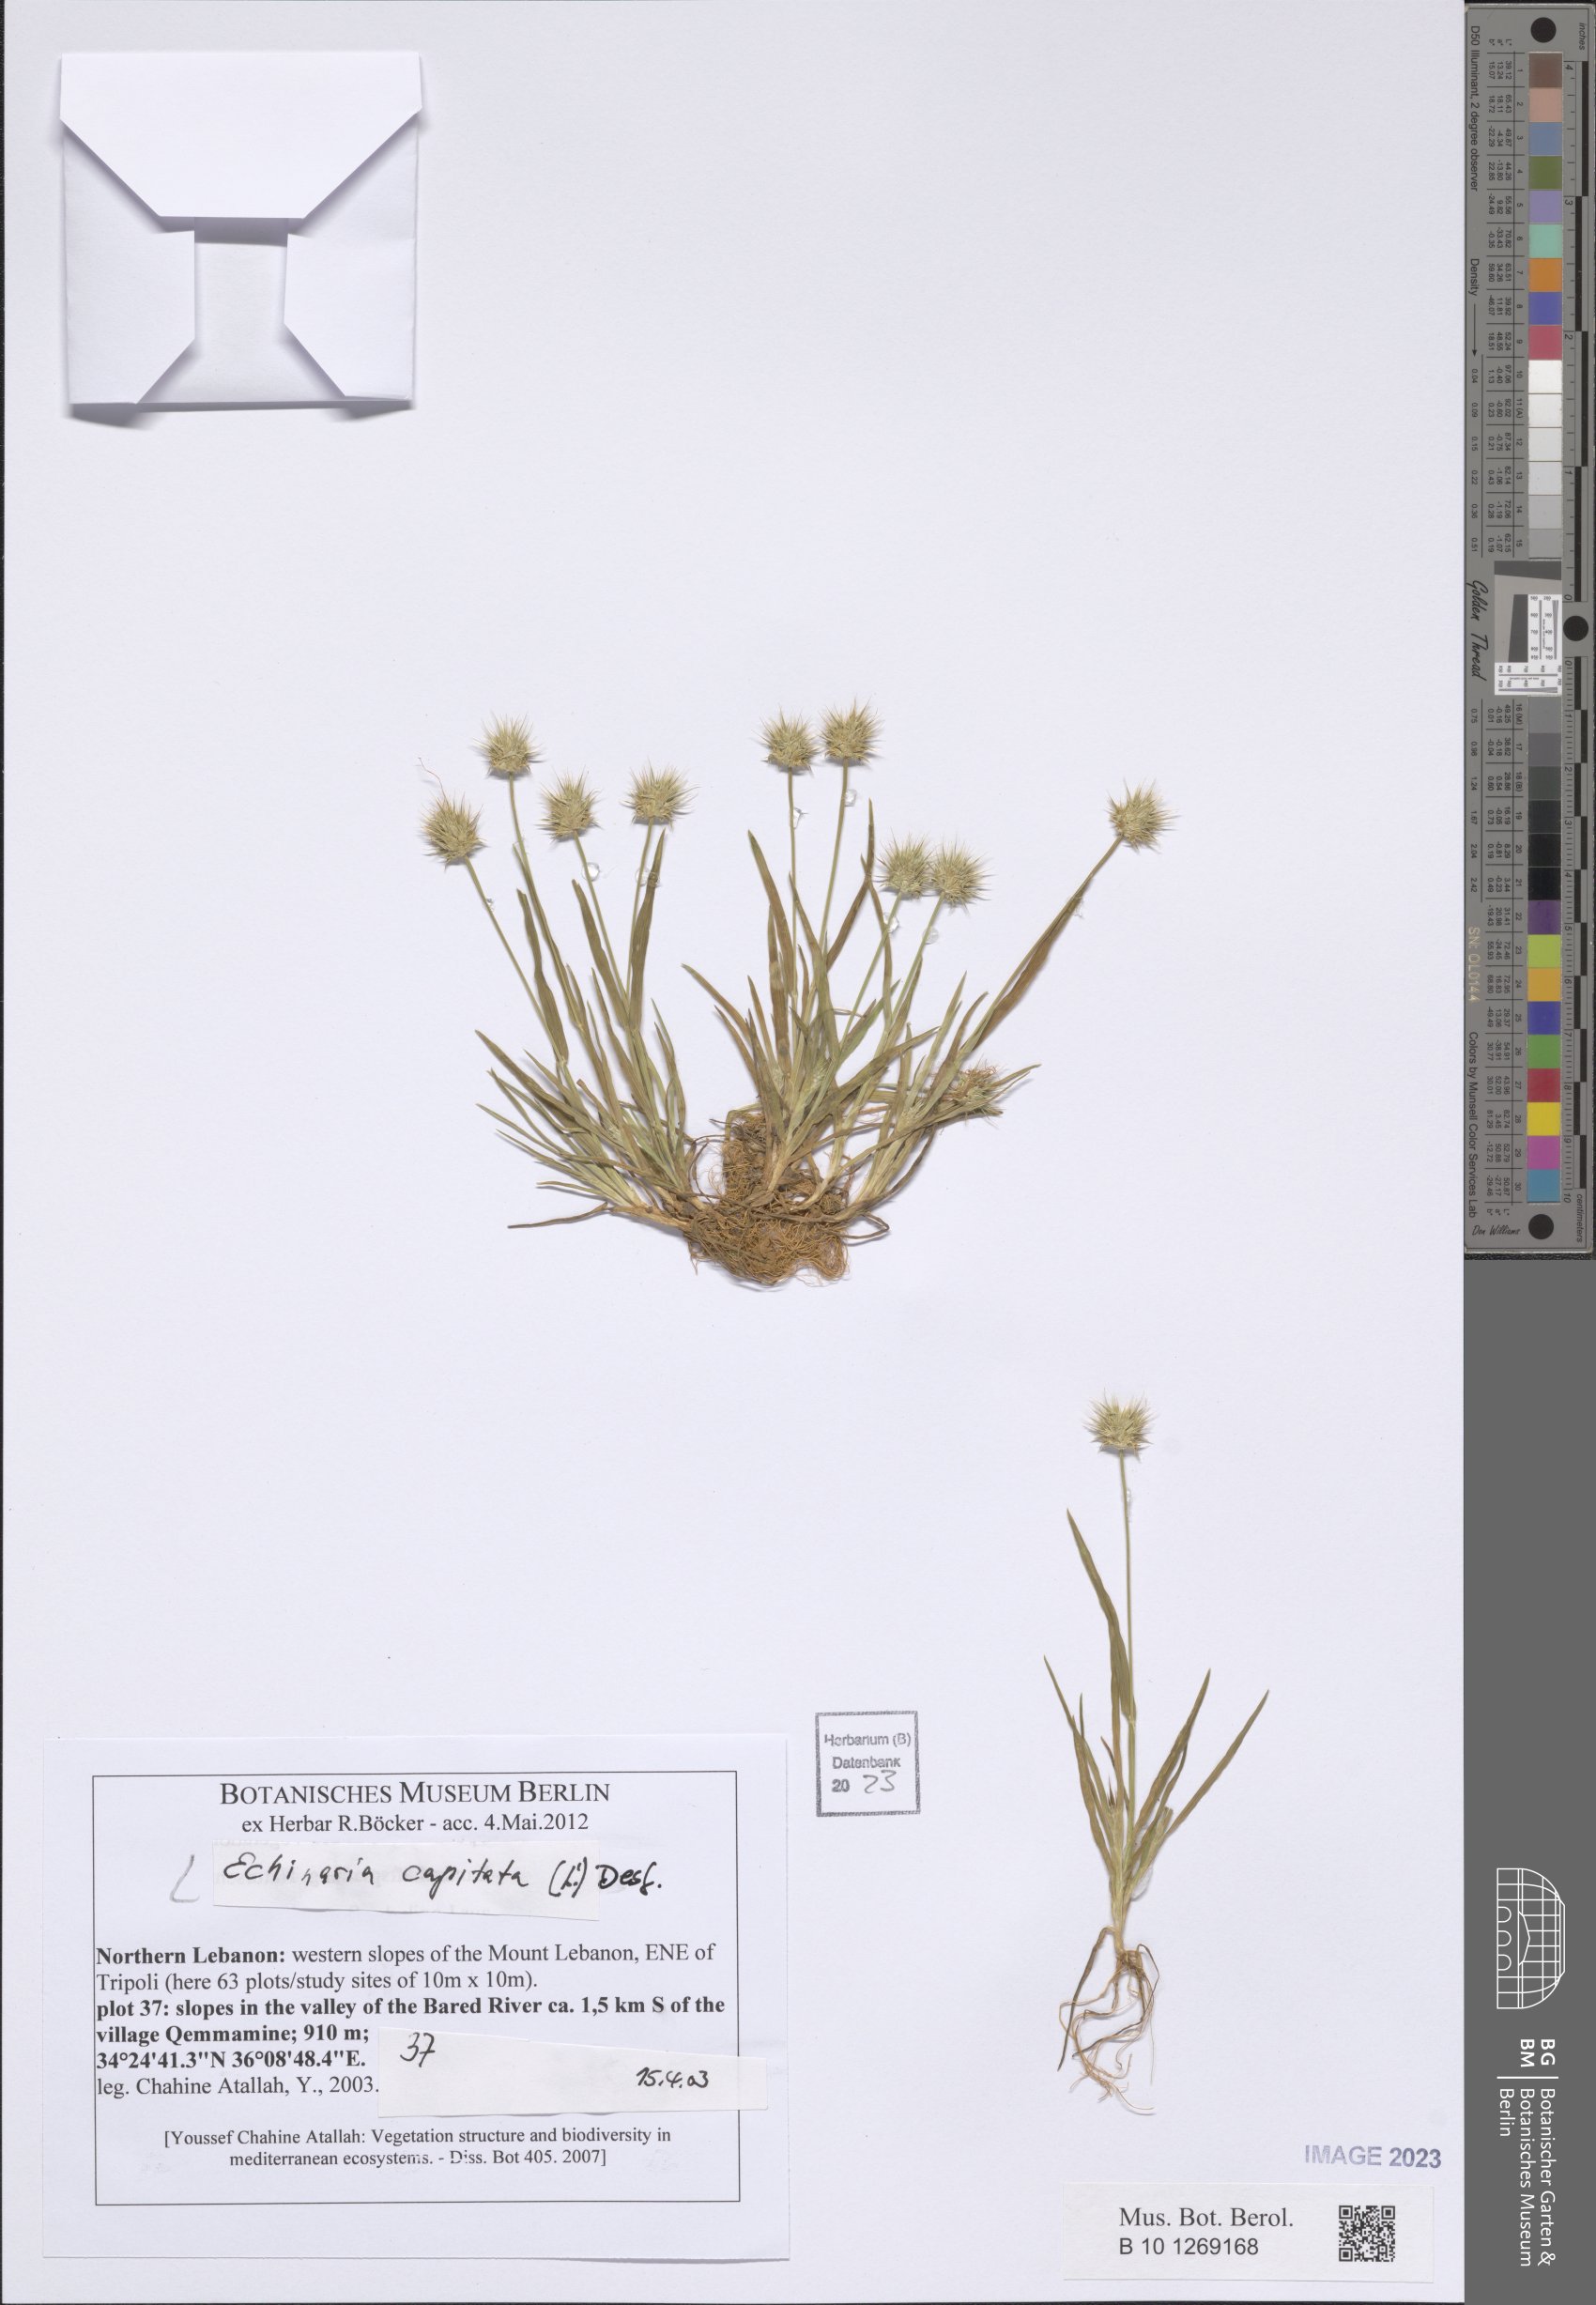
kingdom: Plantae
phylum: Tracheophyta
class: Liliopsida
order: Poales
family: Poaceae
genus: Echinaria
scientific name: Echinaria capitata
